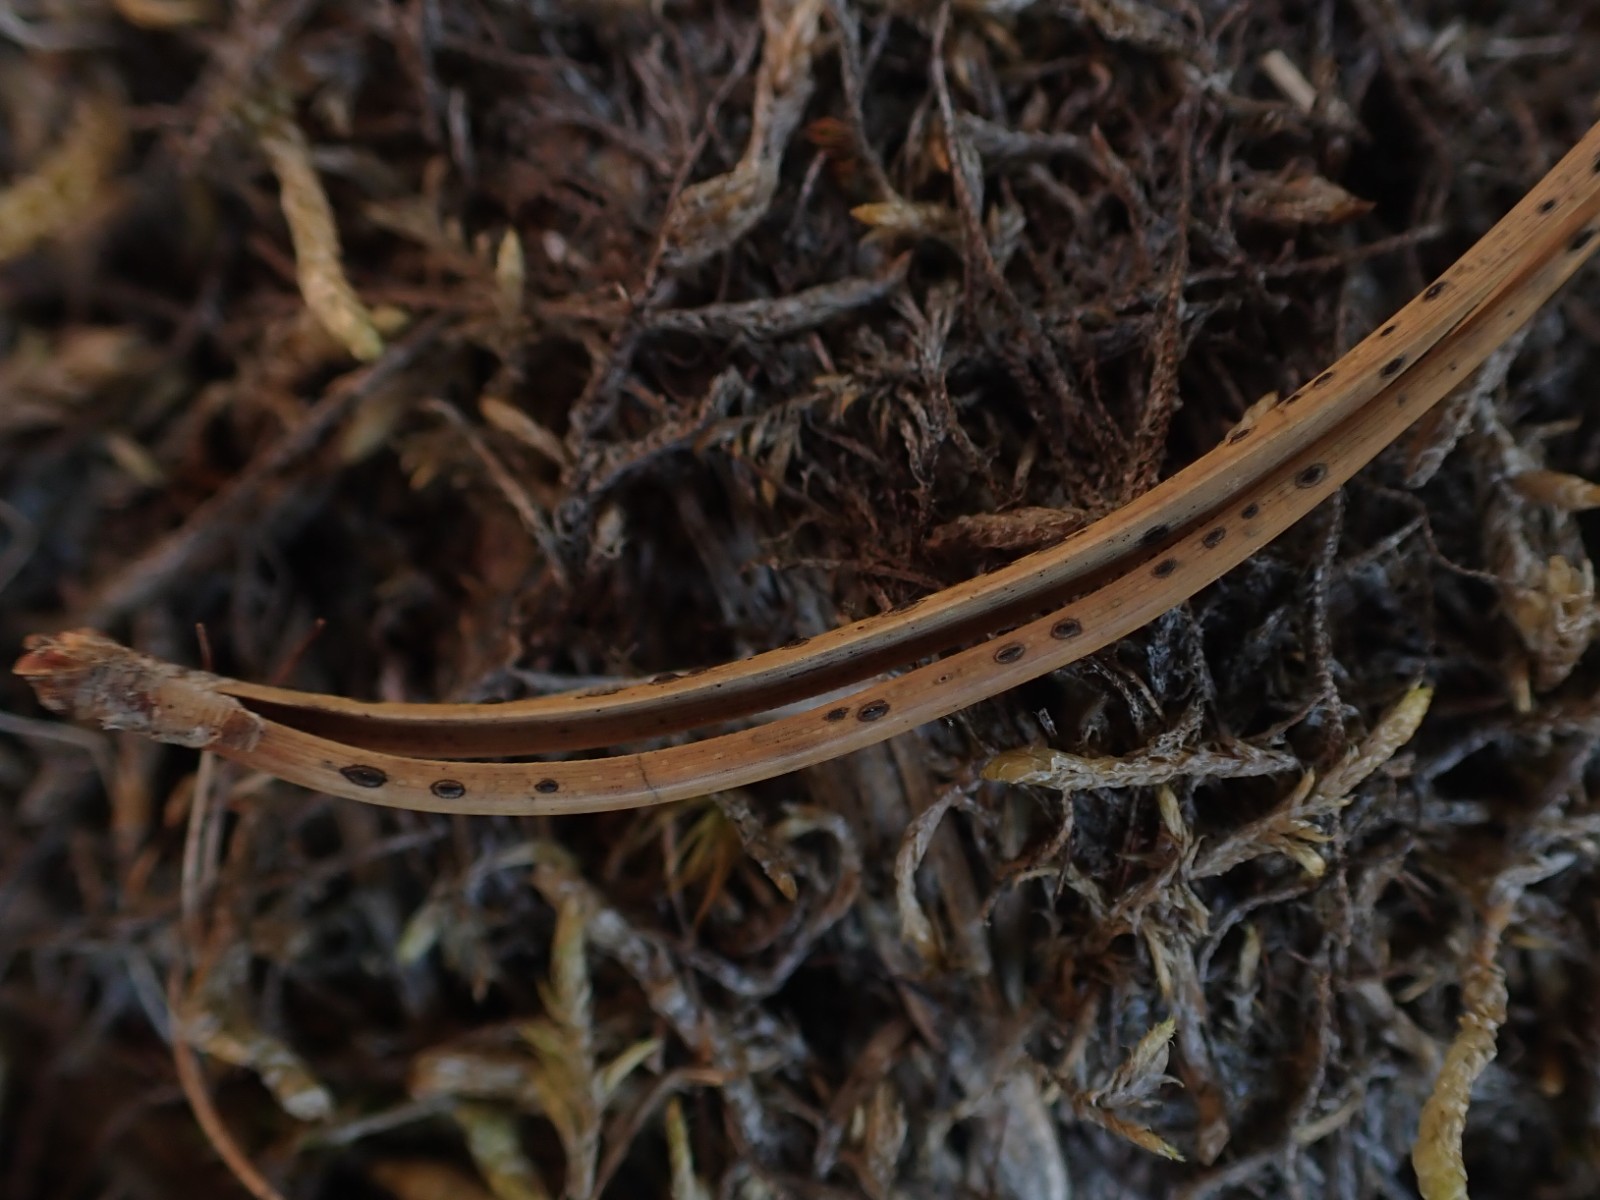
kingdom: Fungi
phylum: Ascomycota
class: Leotiomycetes
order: Rhytismatales
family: Rhytismataceae
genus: Lophodermium
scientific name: Lophodermium pinastri
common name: fyrre-fureplet
